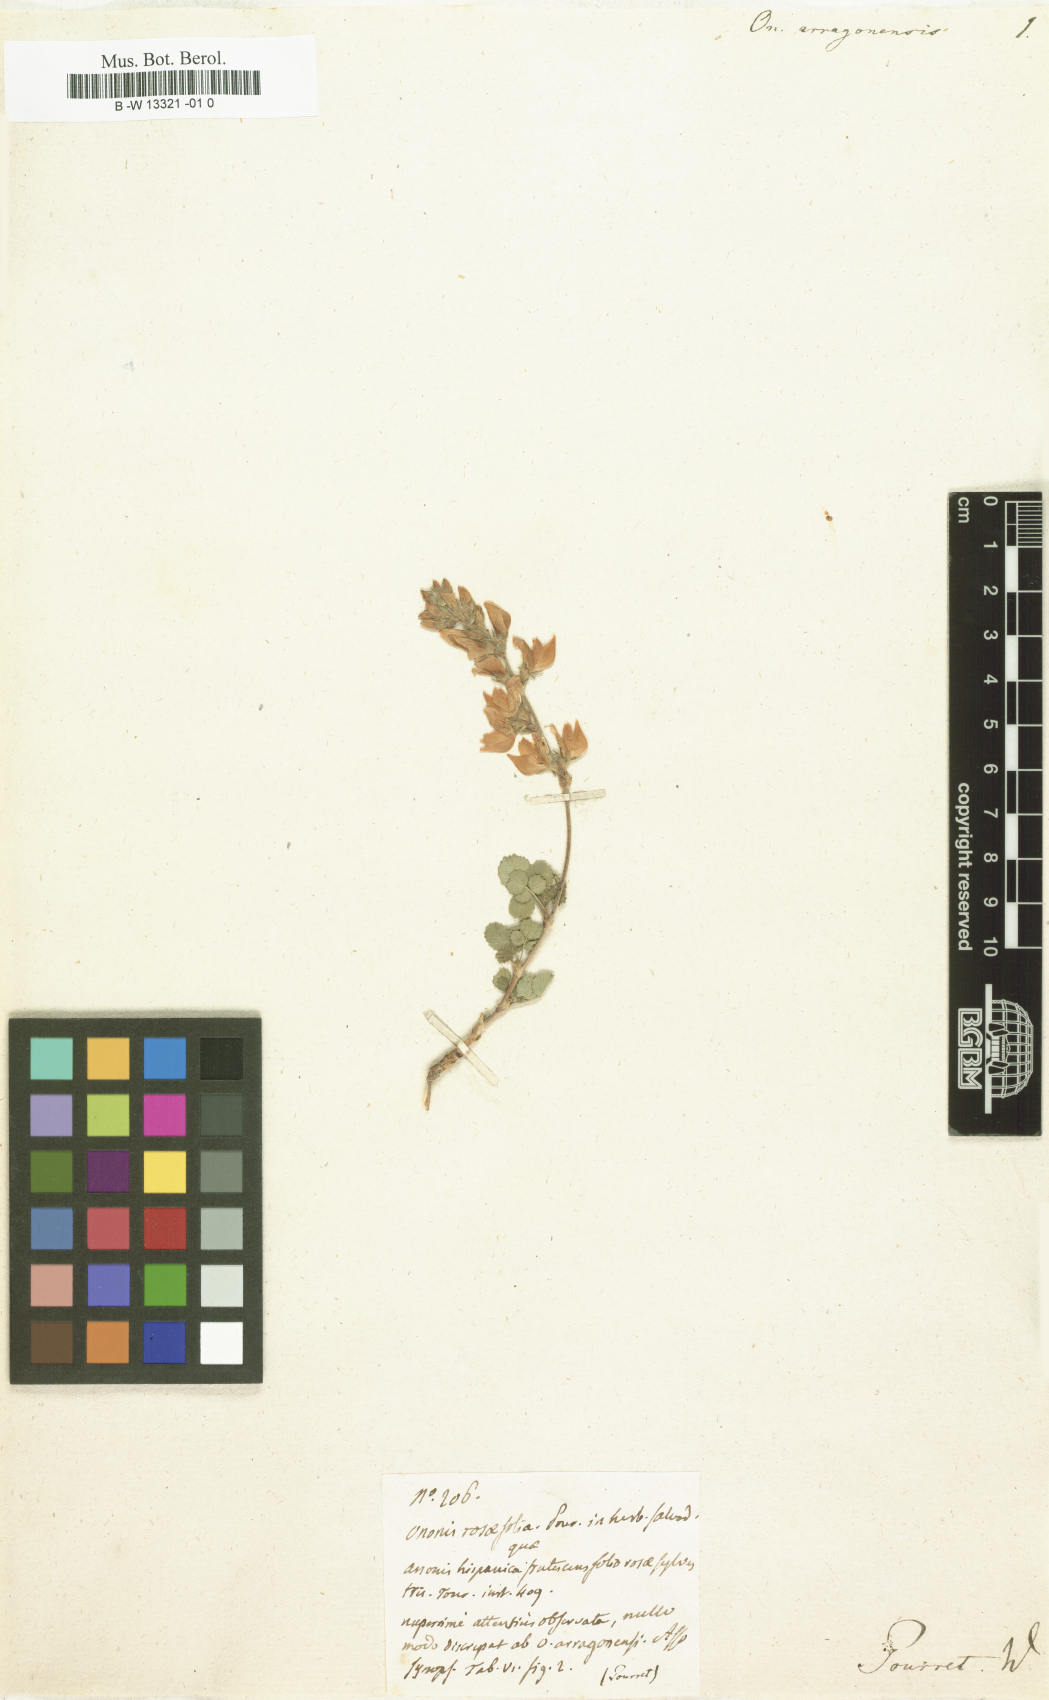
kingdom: Plantae
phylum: Tracheophyta
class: Magnoliopsida
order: Fabales
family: Fabaceae
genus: Ononis
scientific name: Ononis aragonensis
